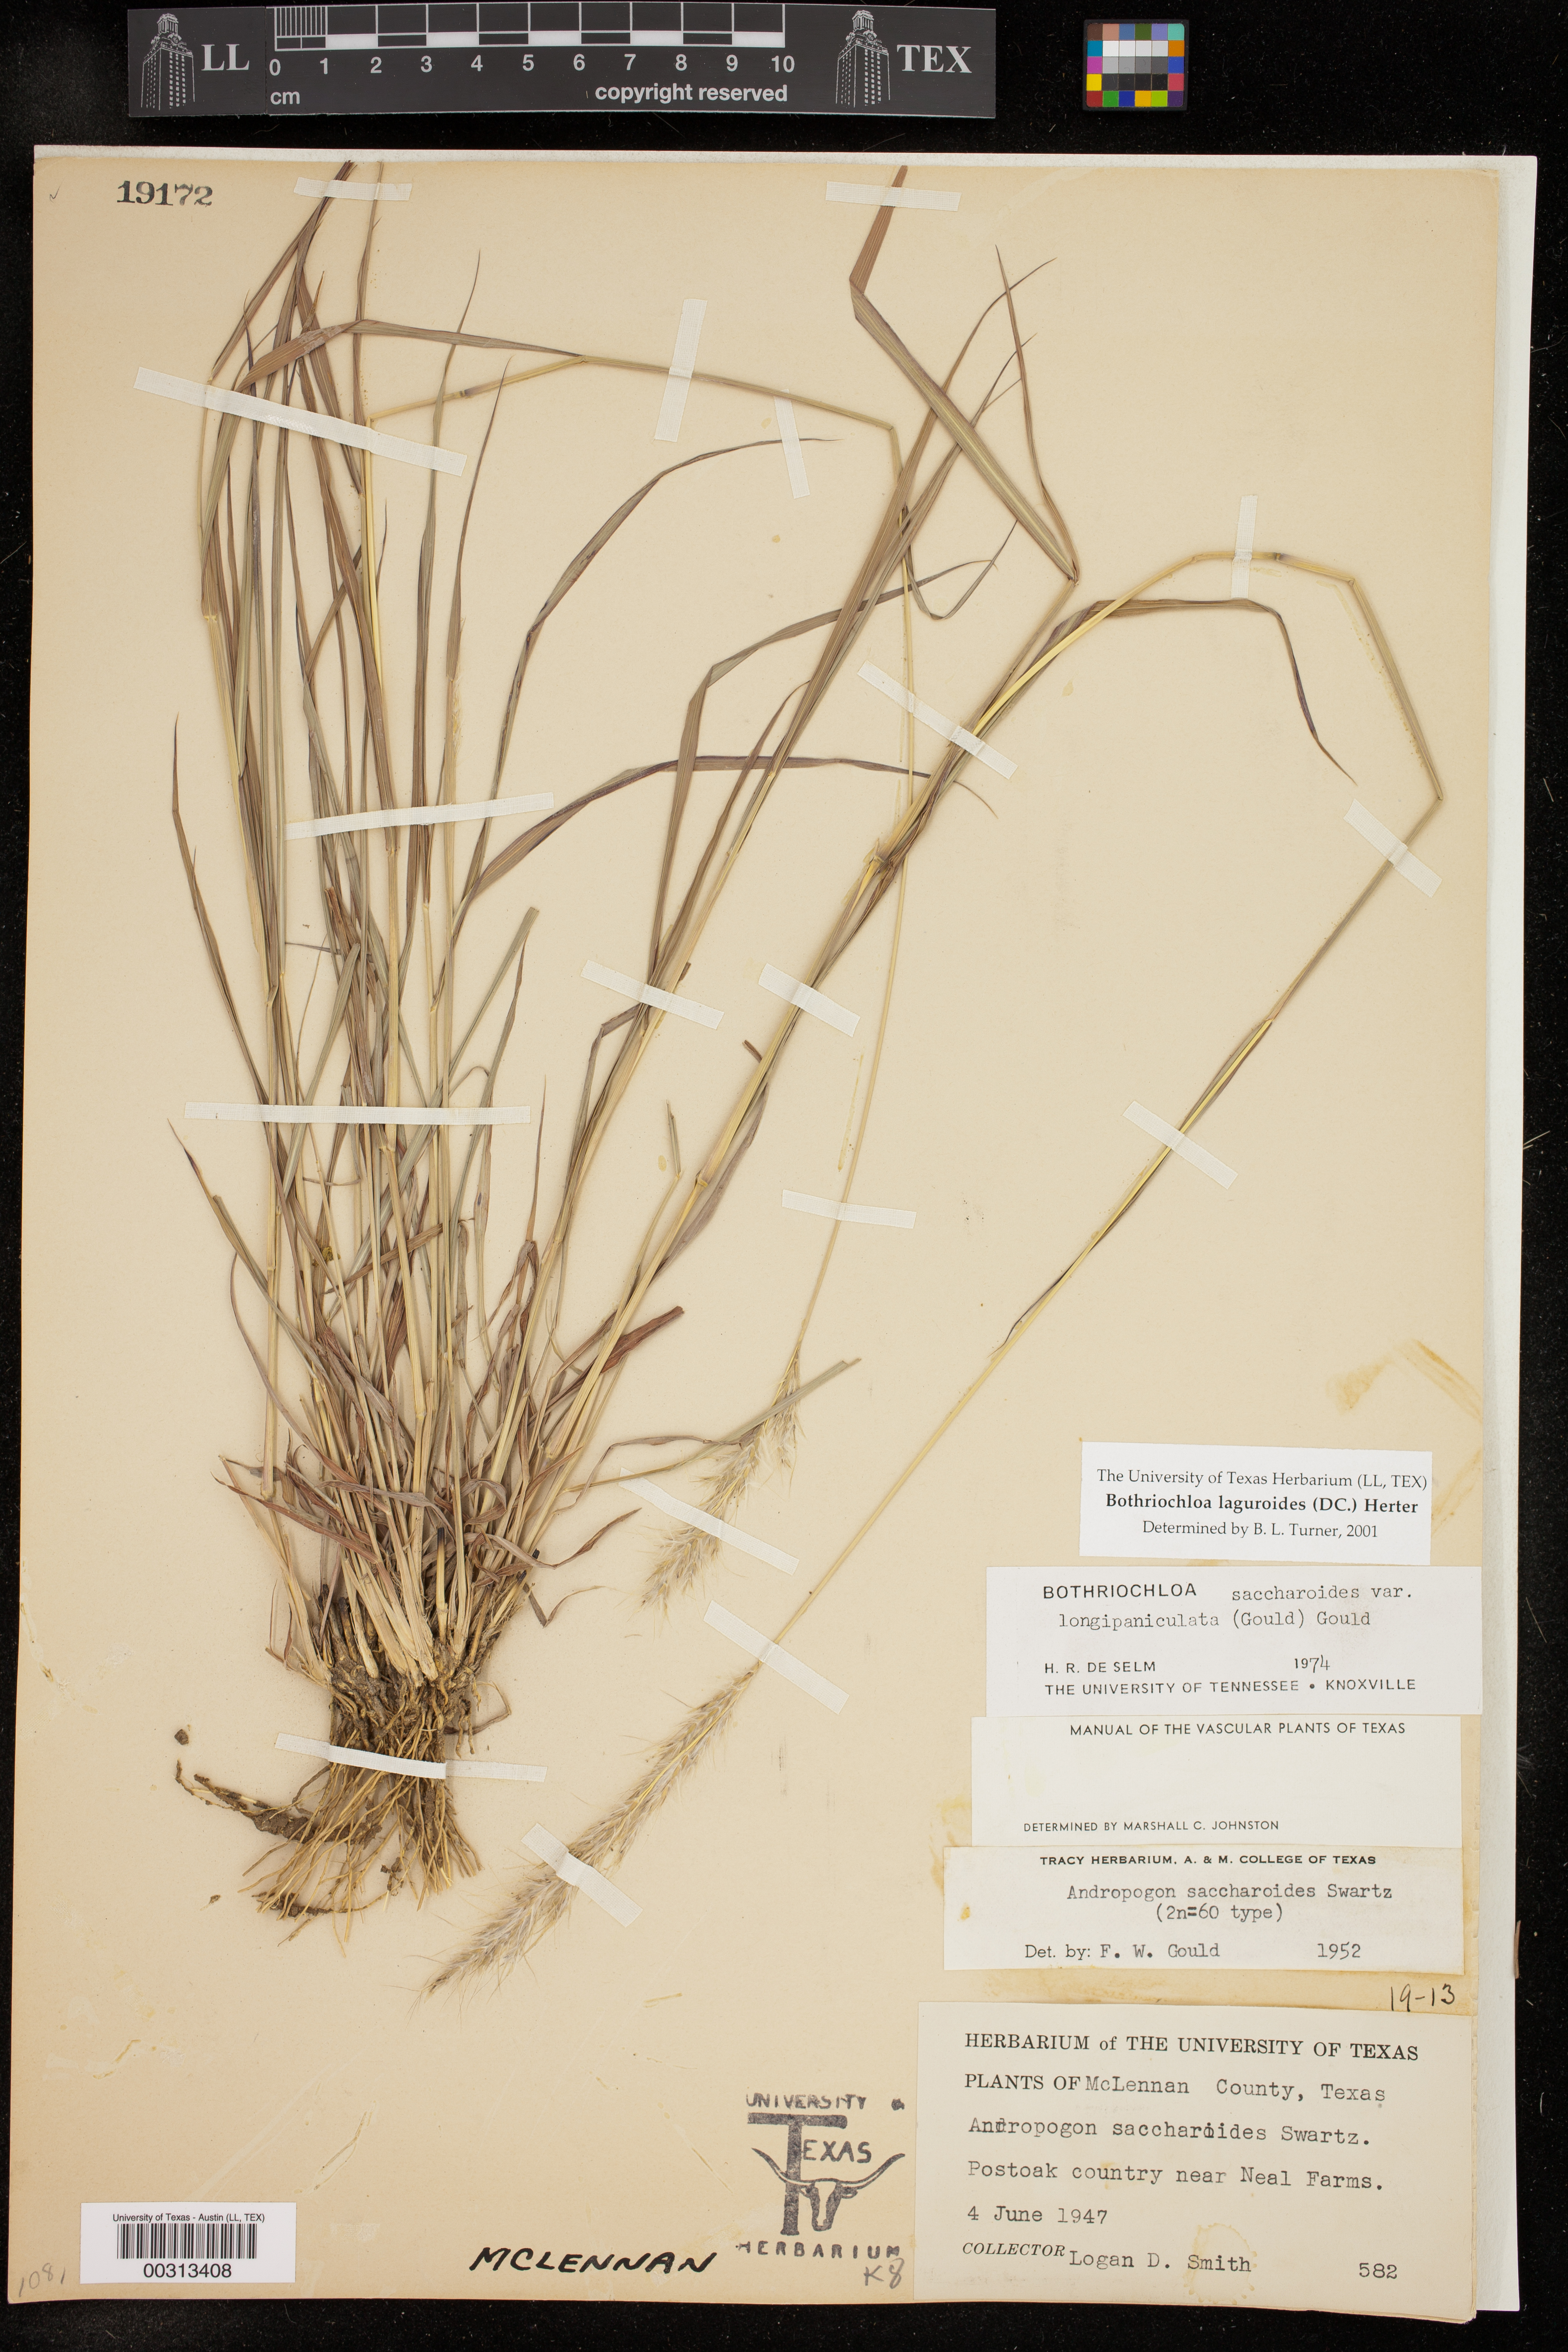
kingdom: Plantae
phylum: Tracheophyta
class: Liliopsida
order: Poales
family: Poaceae
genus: Bothriochloa
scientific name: Bothriochloa laguroides
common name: Silver bluestem
